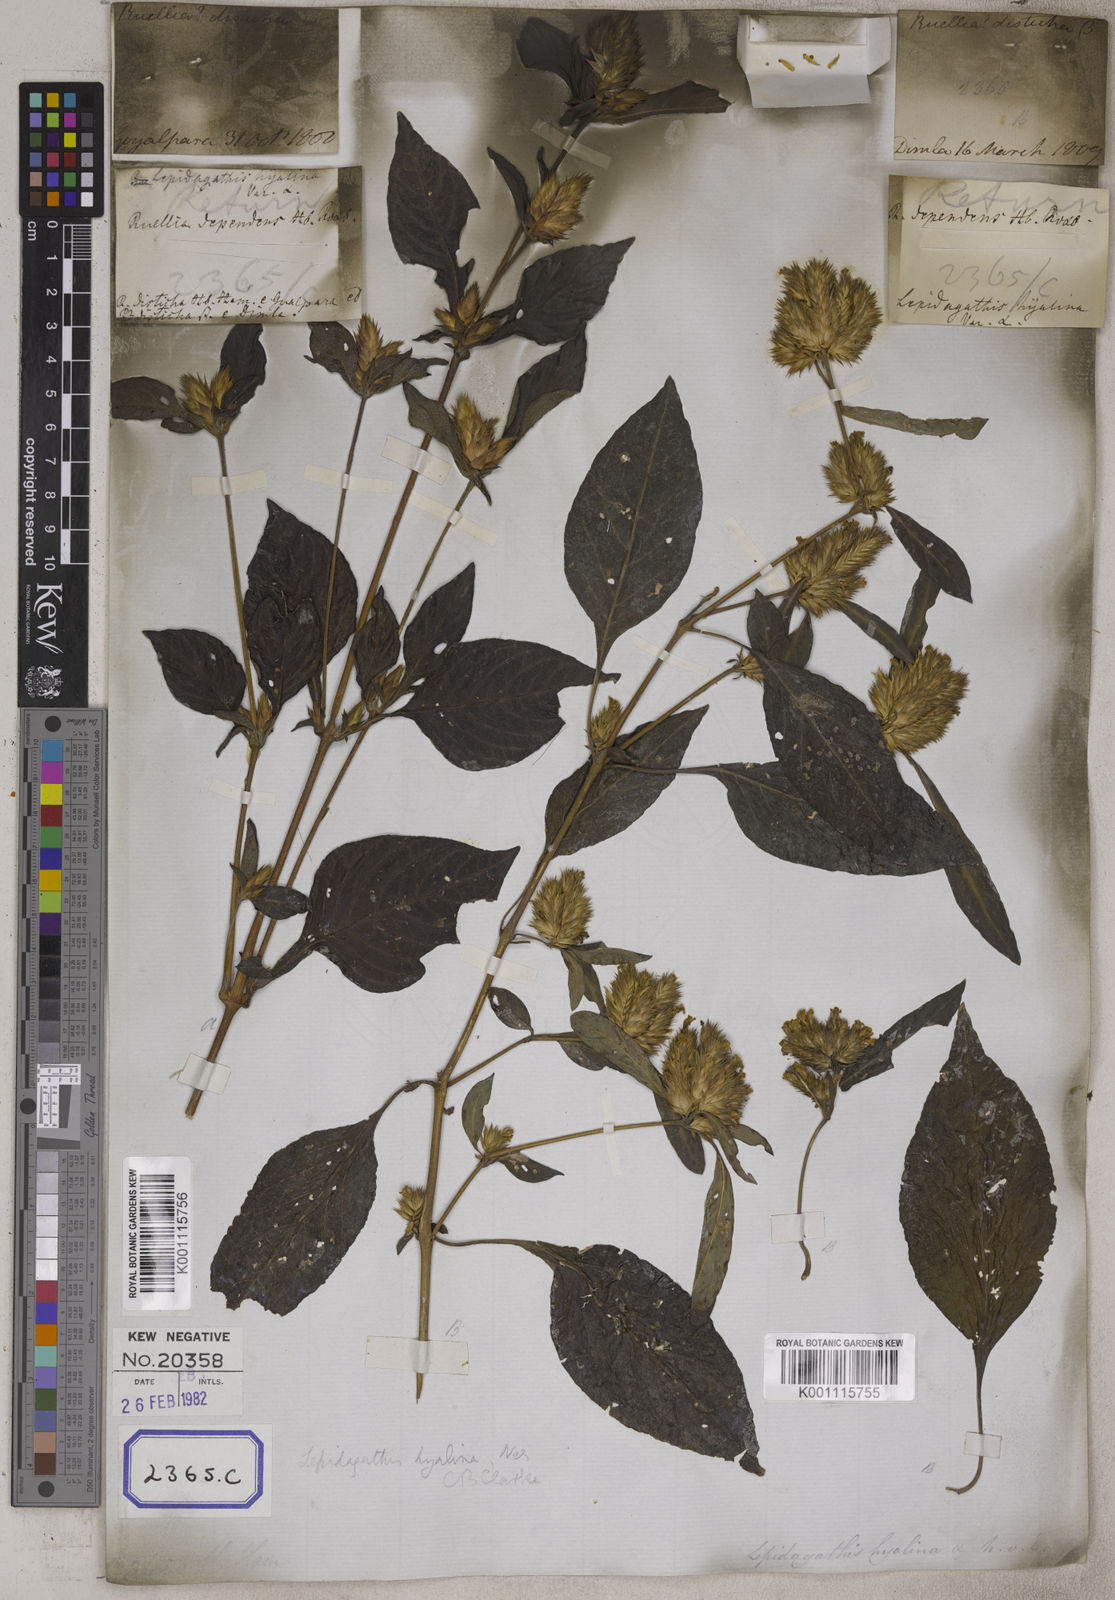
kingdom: Plantae
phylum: Tracheophyta
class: Magnoliopsida
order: Lamiales
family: Acanthaceae
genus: Lepidagathis
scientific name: Lepidagathis incurva
